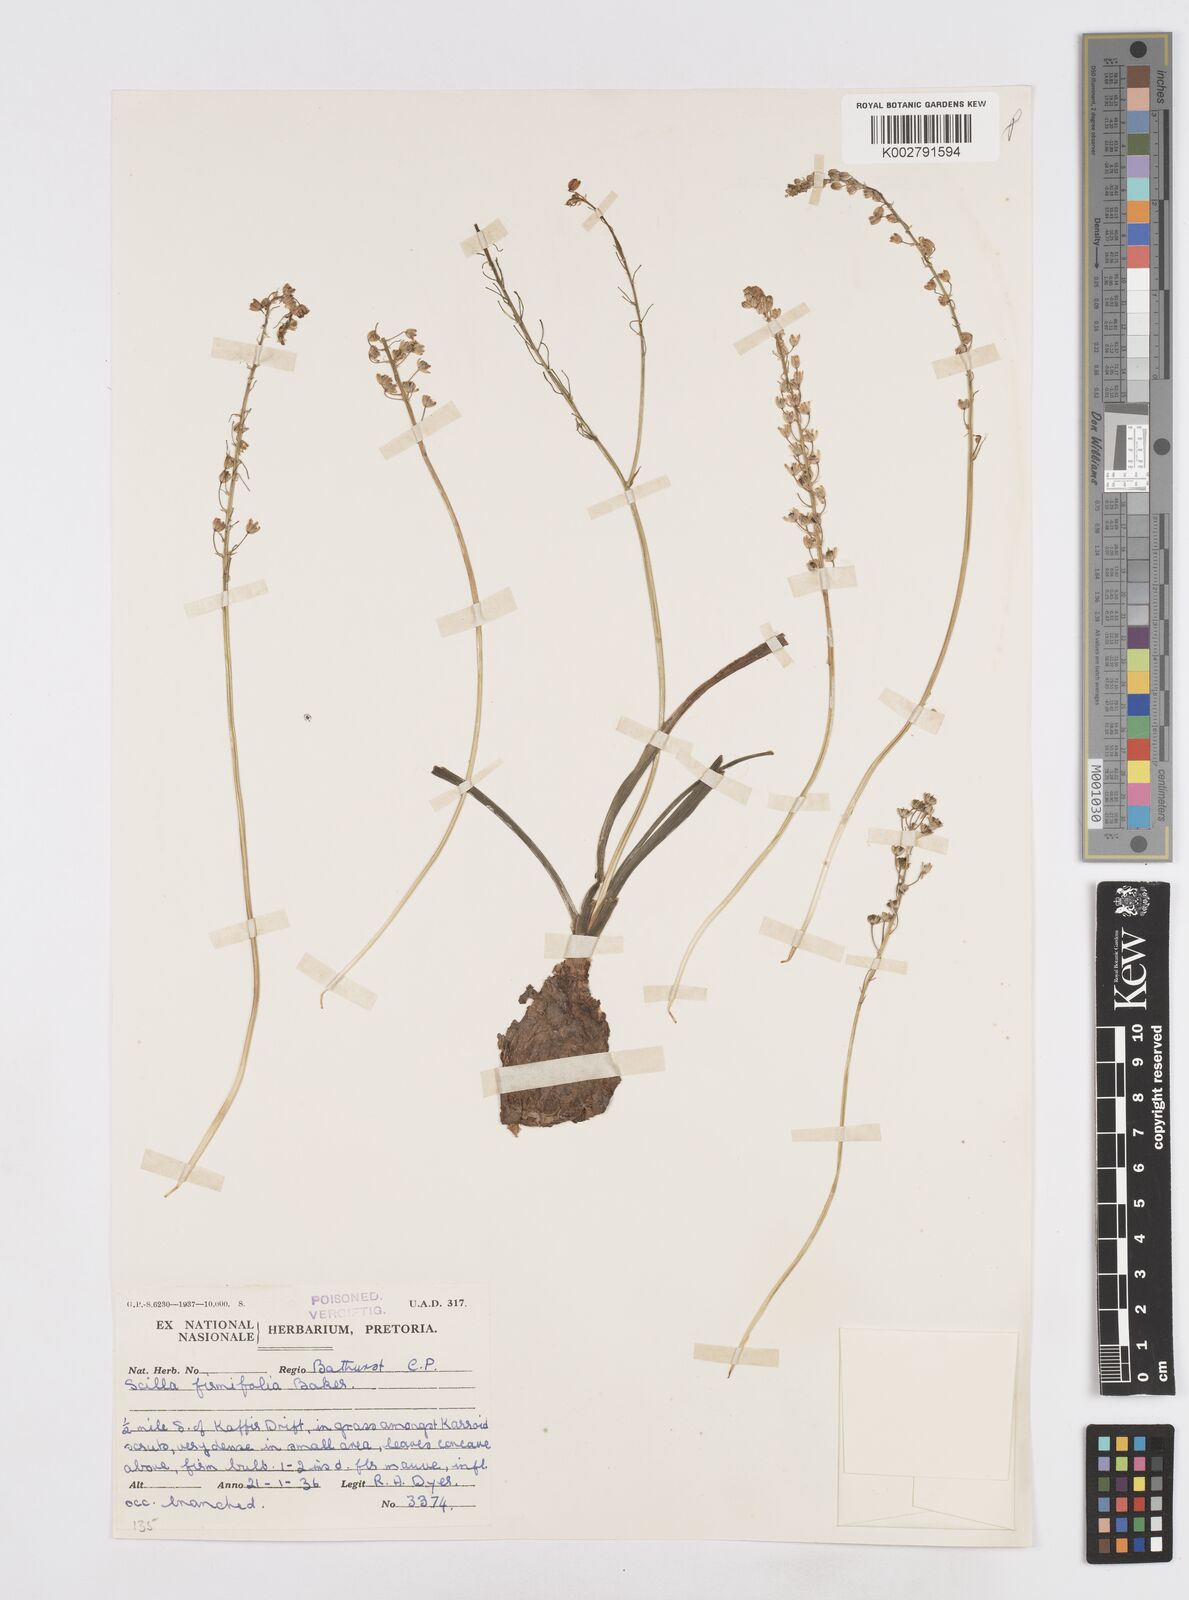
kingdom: Plantae
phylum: Tracheophyta
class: Liliopsida
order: Asparagales
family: Asparagaceae
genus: Pseudoprospero
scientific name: Pseudoprospero firmifolium
